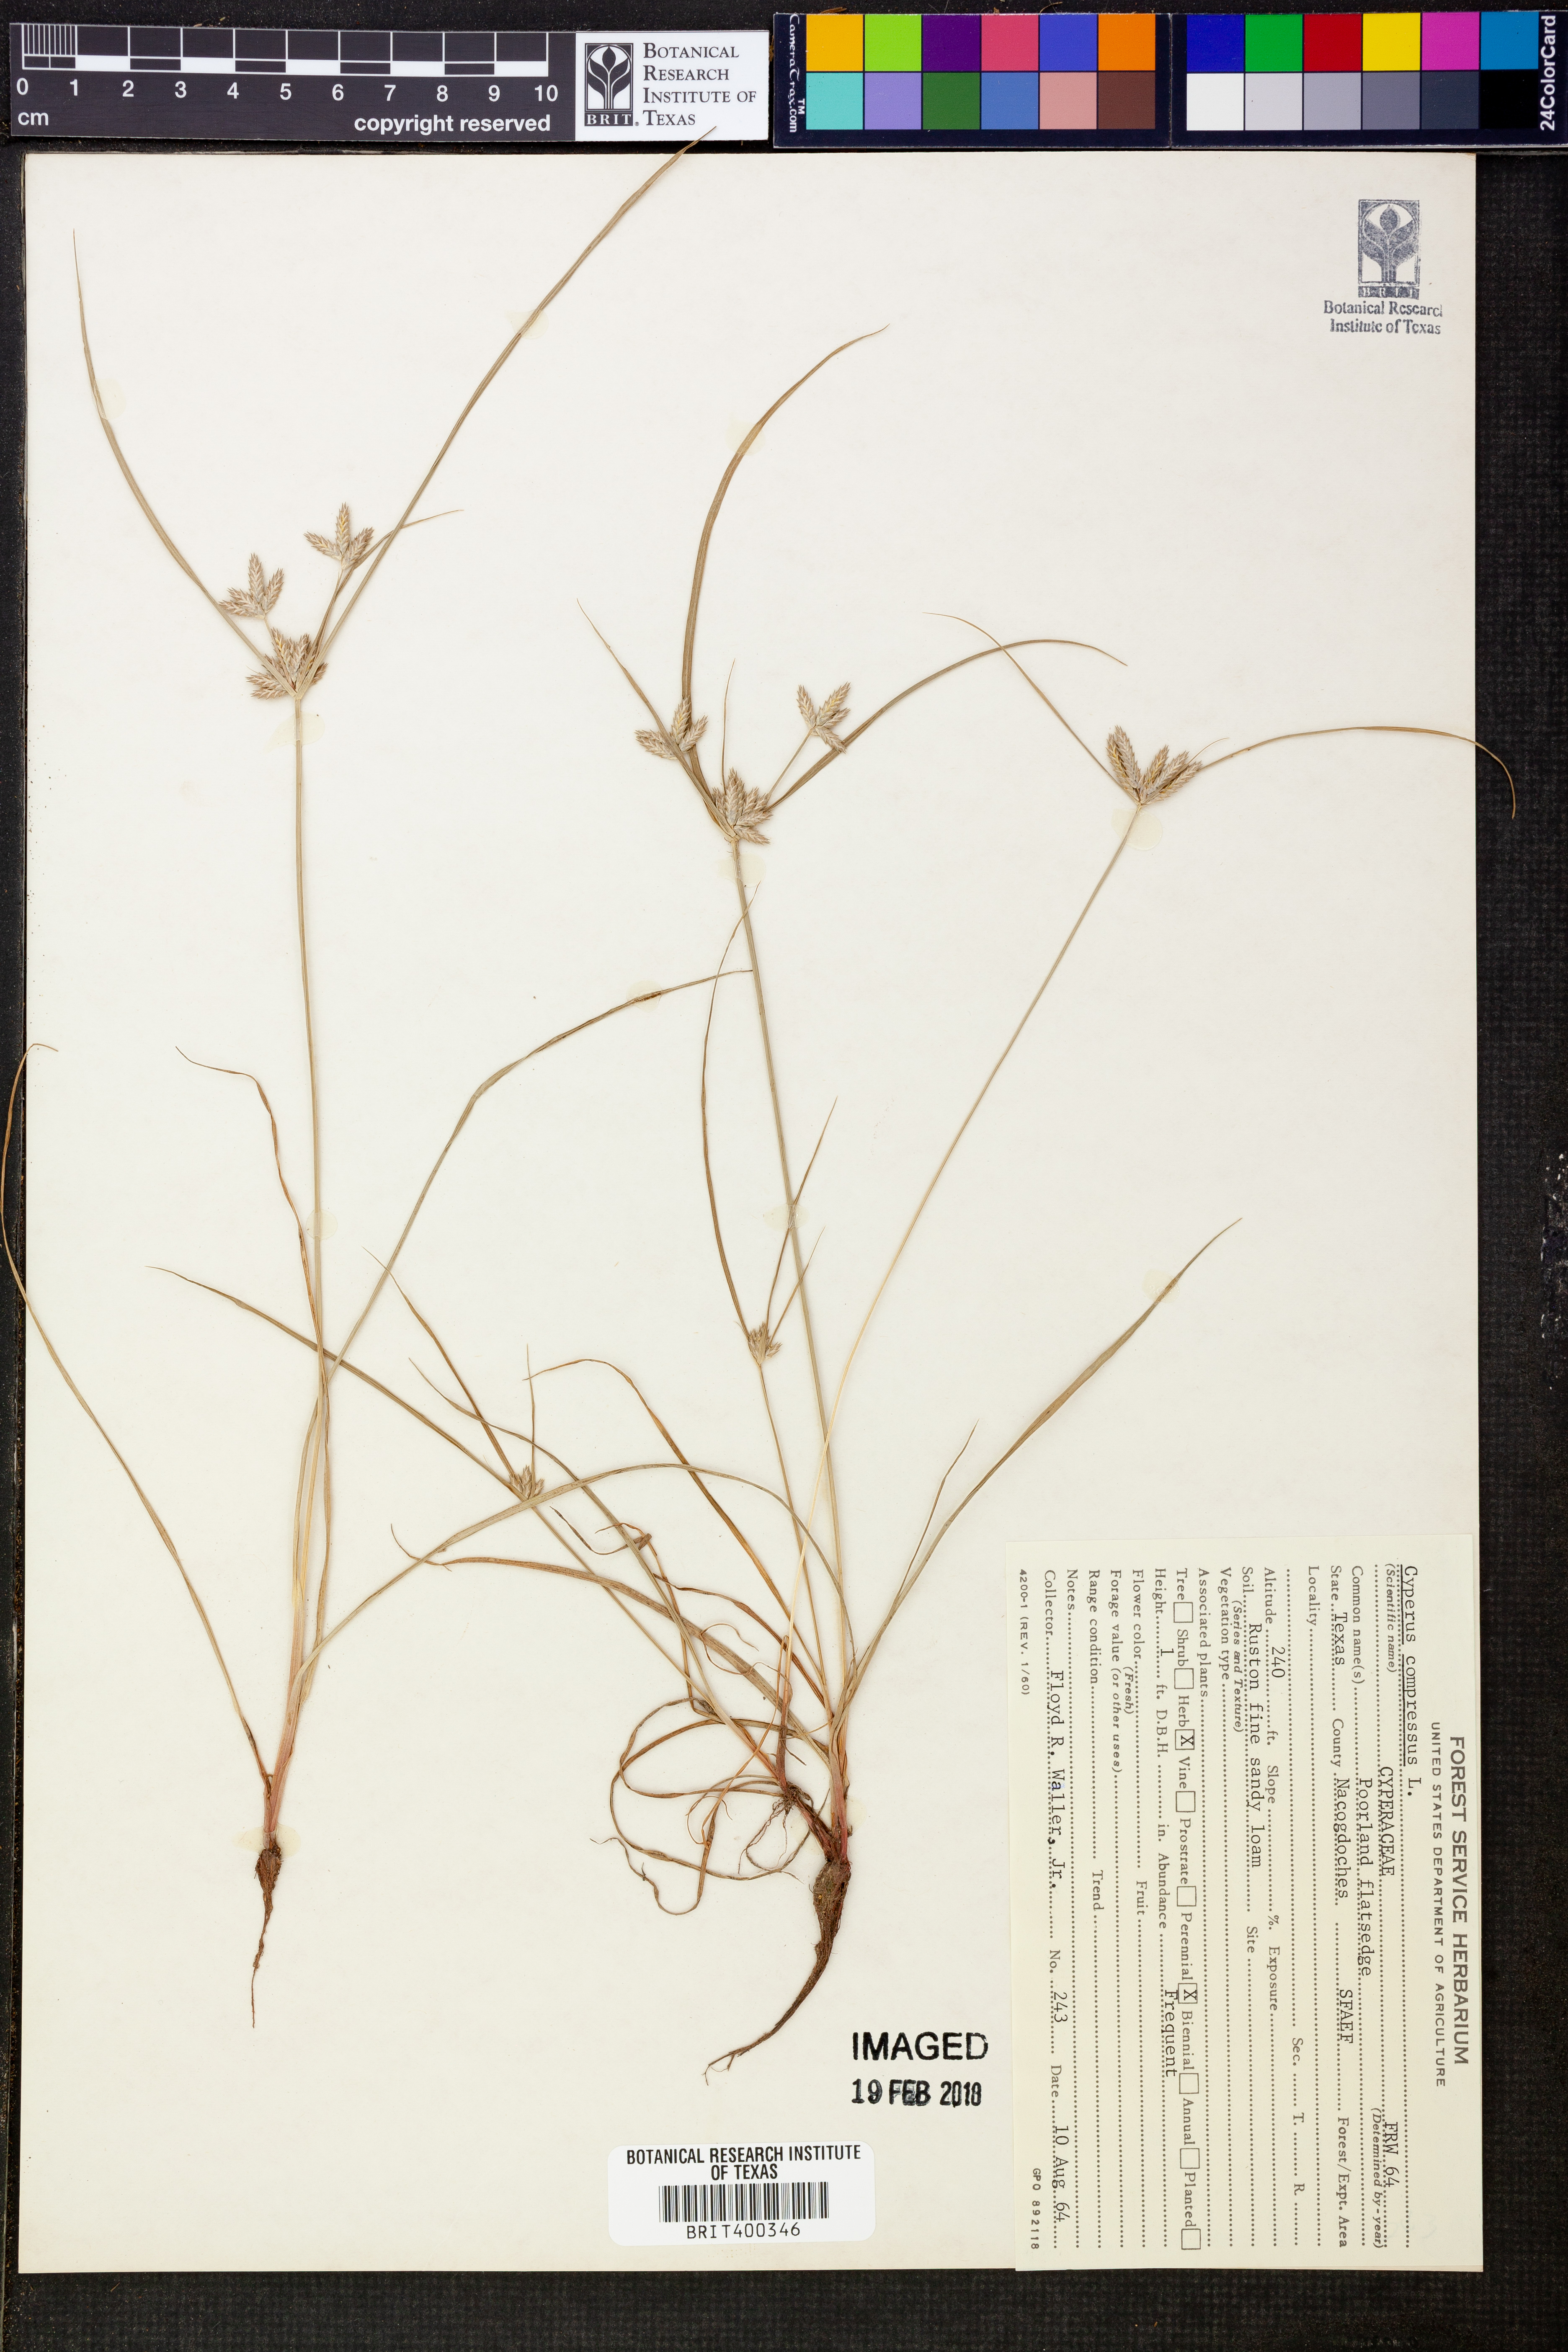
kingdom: Plantae
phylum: Tracheophyta
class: Liliopsida
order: Poales
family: Cyperaceae
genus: Cyperus
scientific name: Cyperus compressus
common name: Poorland flatsedge
